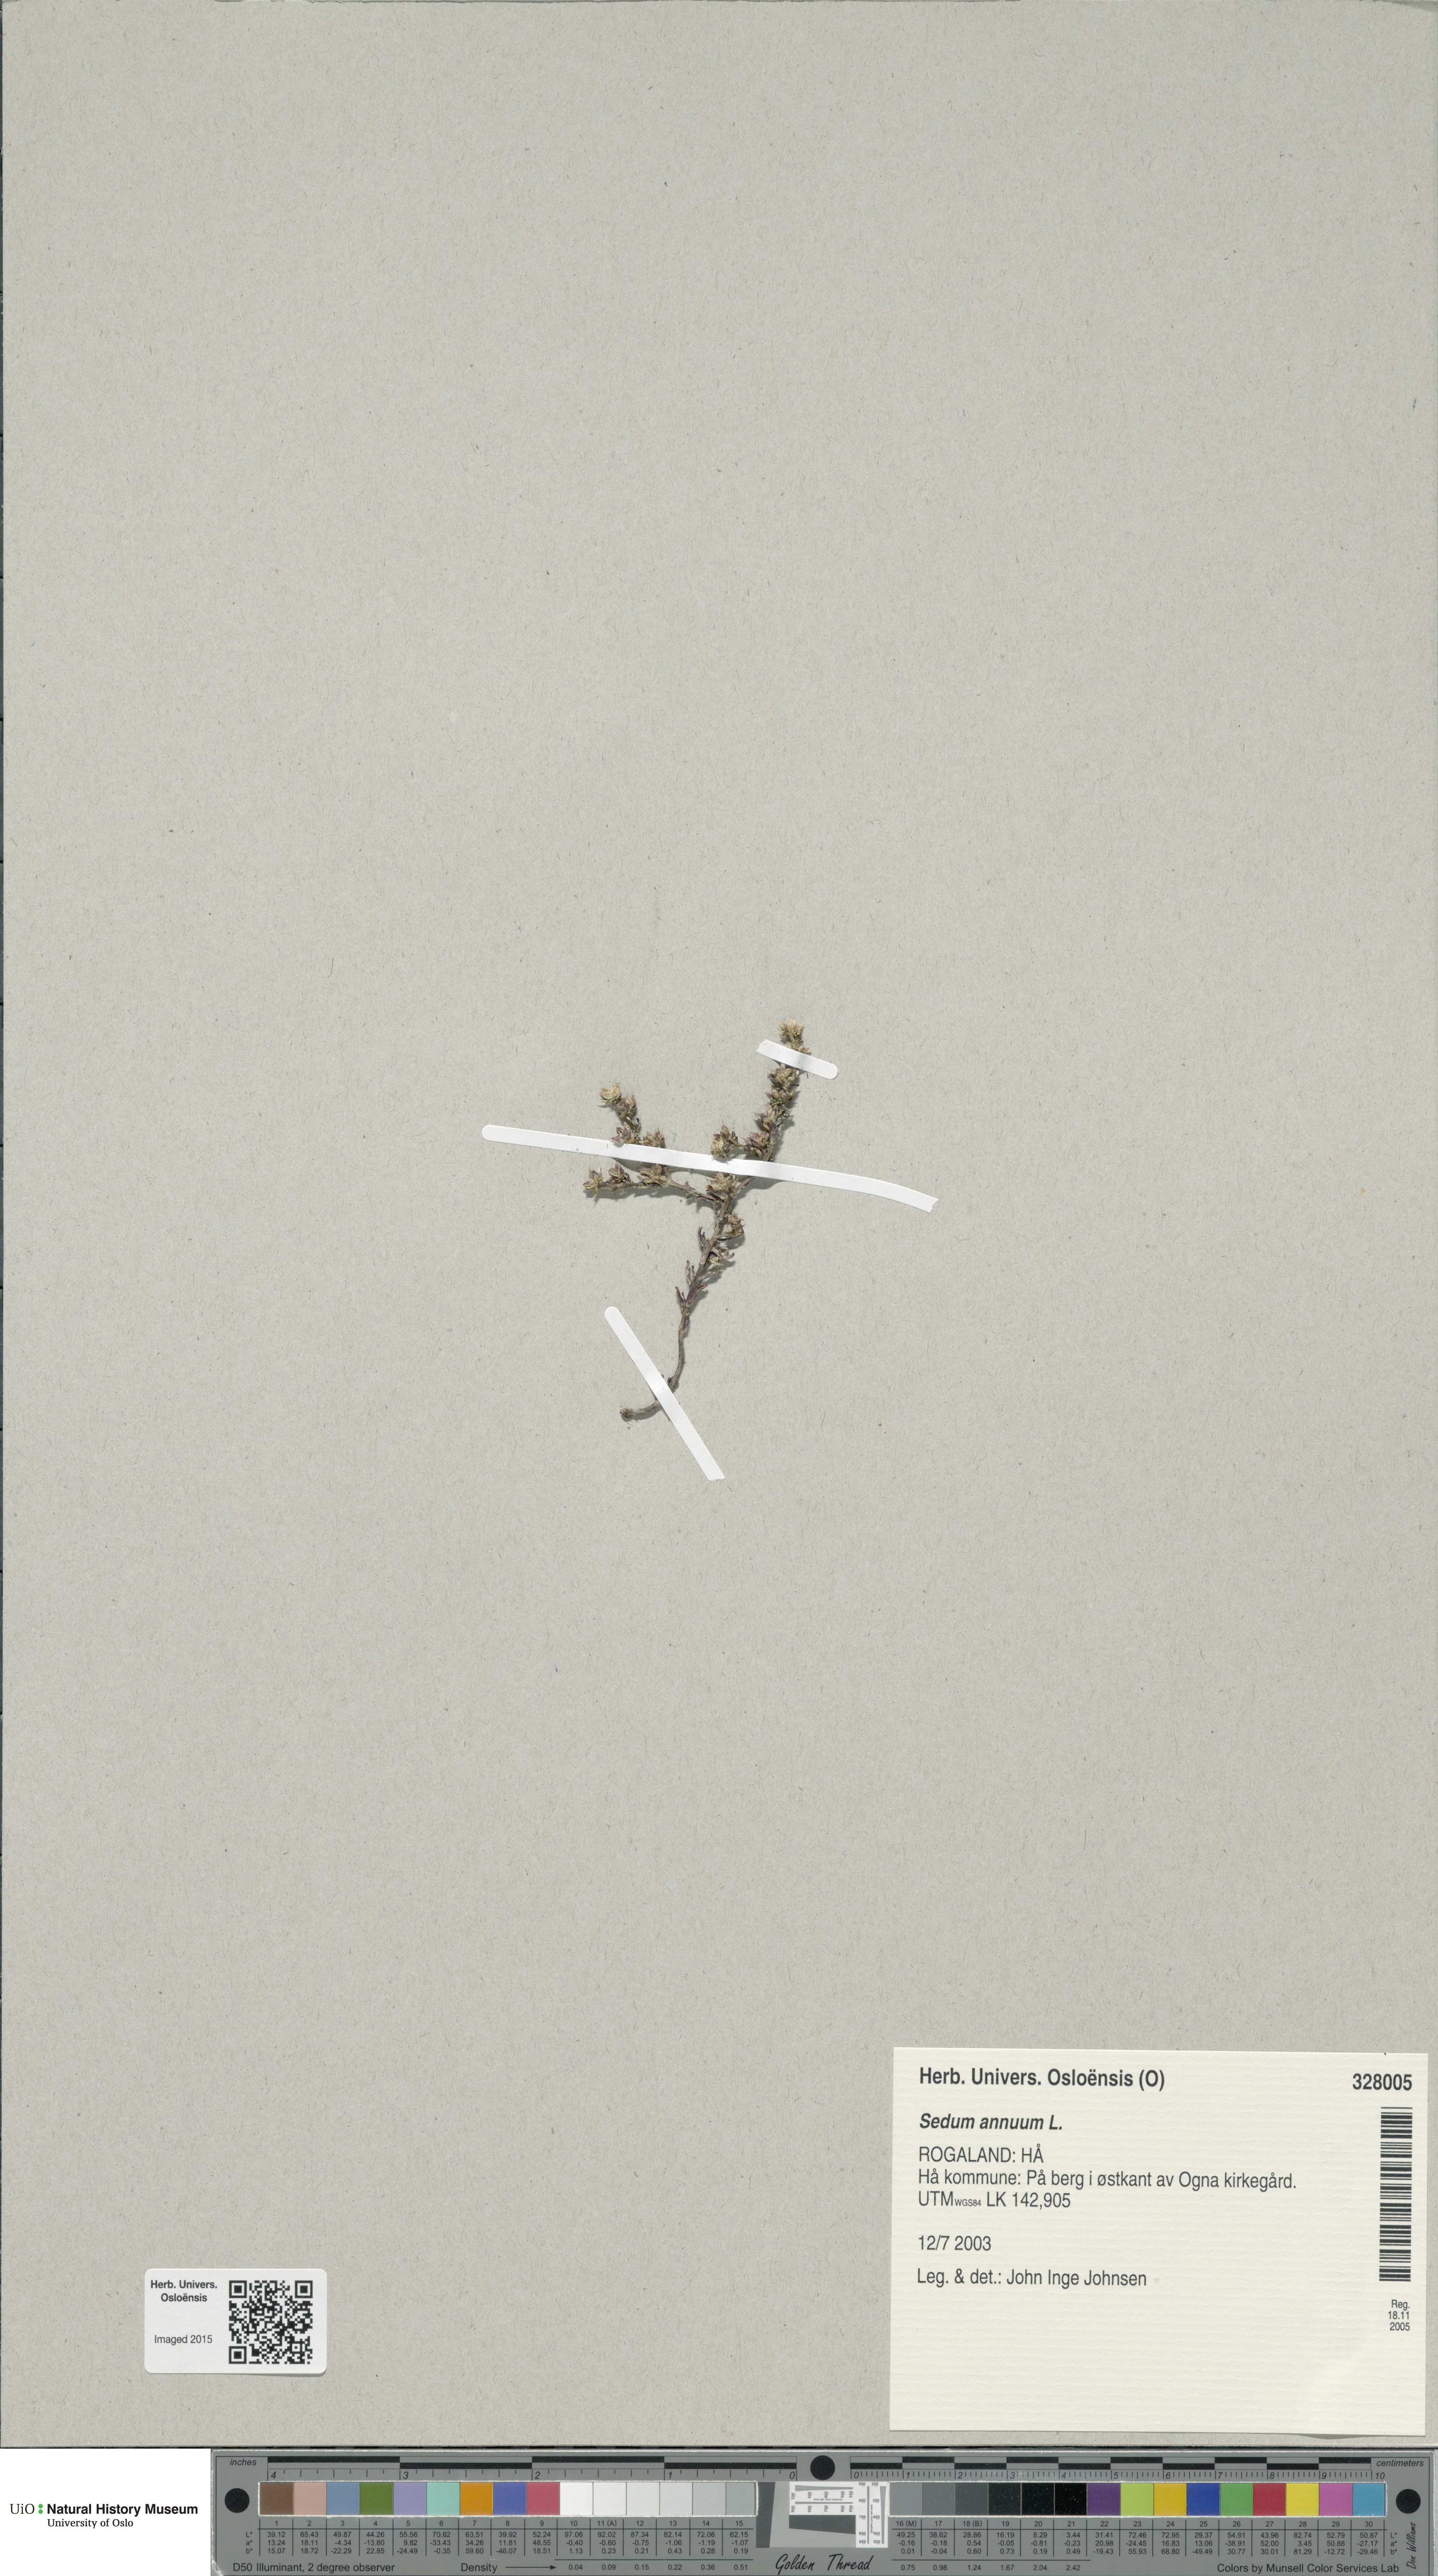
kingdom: Plantae
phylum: Tracheophyta
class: Magnoliopsida
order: Saxifragales
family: Crassulaceae
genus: Sedum
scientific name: Sedum annuum
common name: Annual stonecrop
